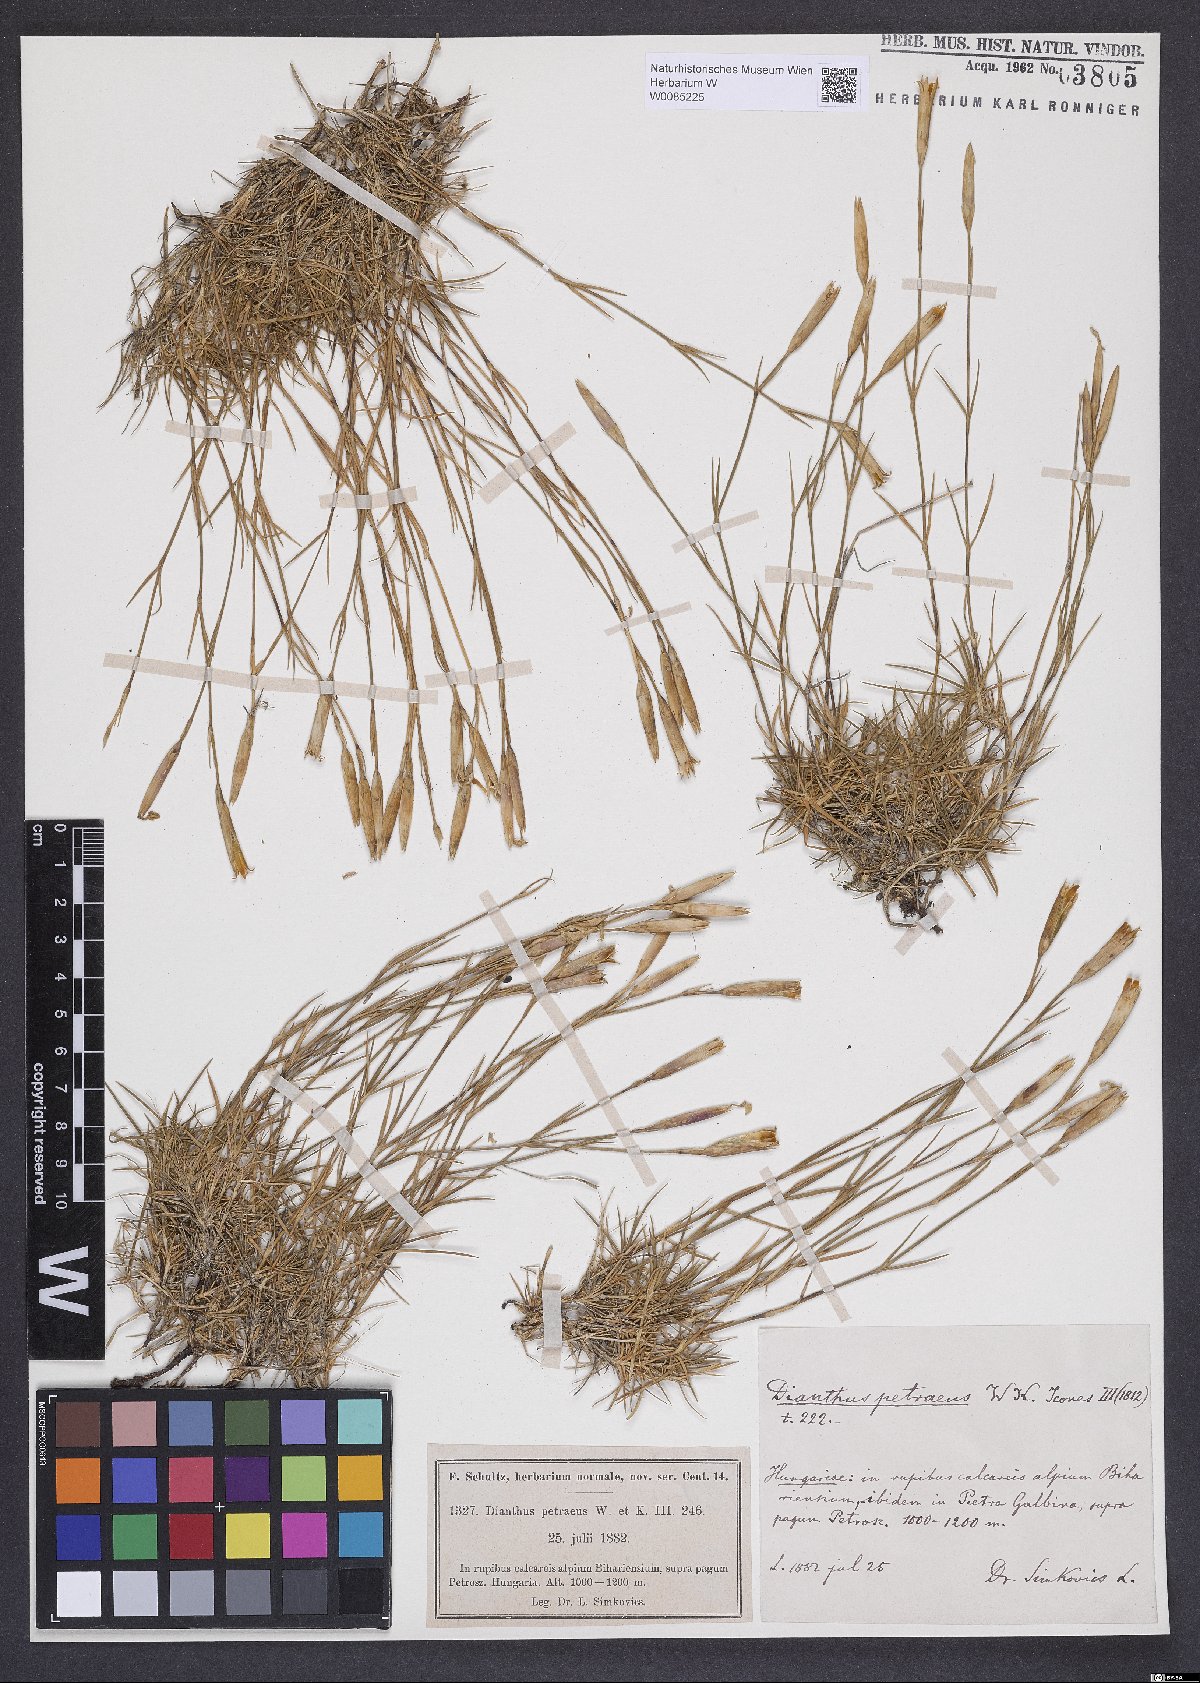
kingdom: Plantae
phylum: Tracheophyta
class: Magnoliopsida
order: Caryophyllales
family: Caryophyllaceae
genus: Dianthus
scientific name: Dianthus petraeus
